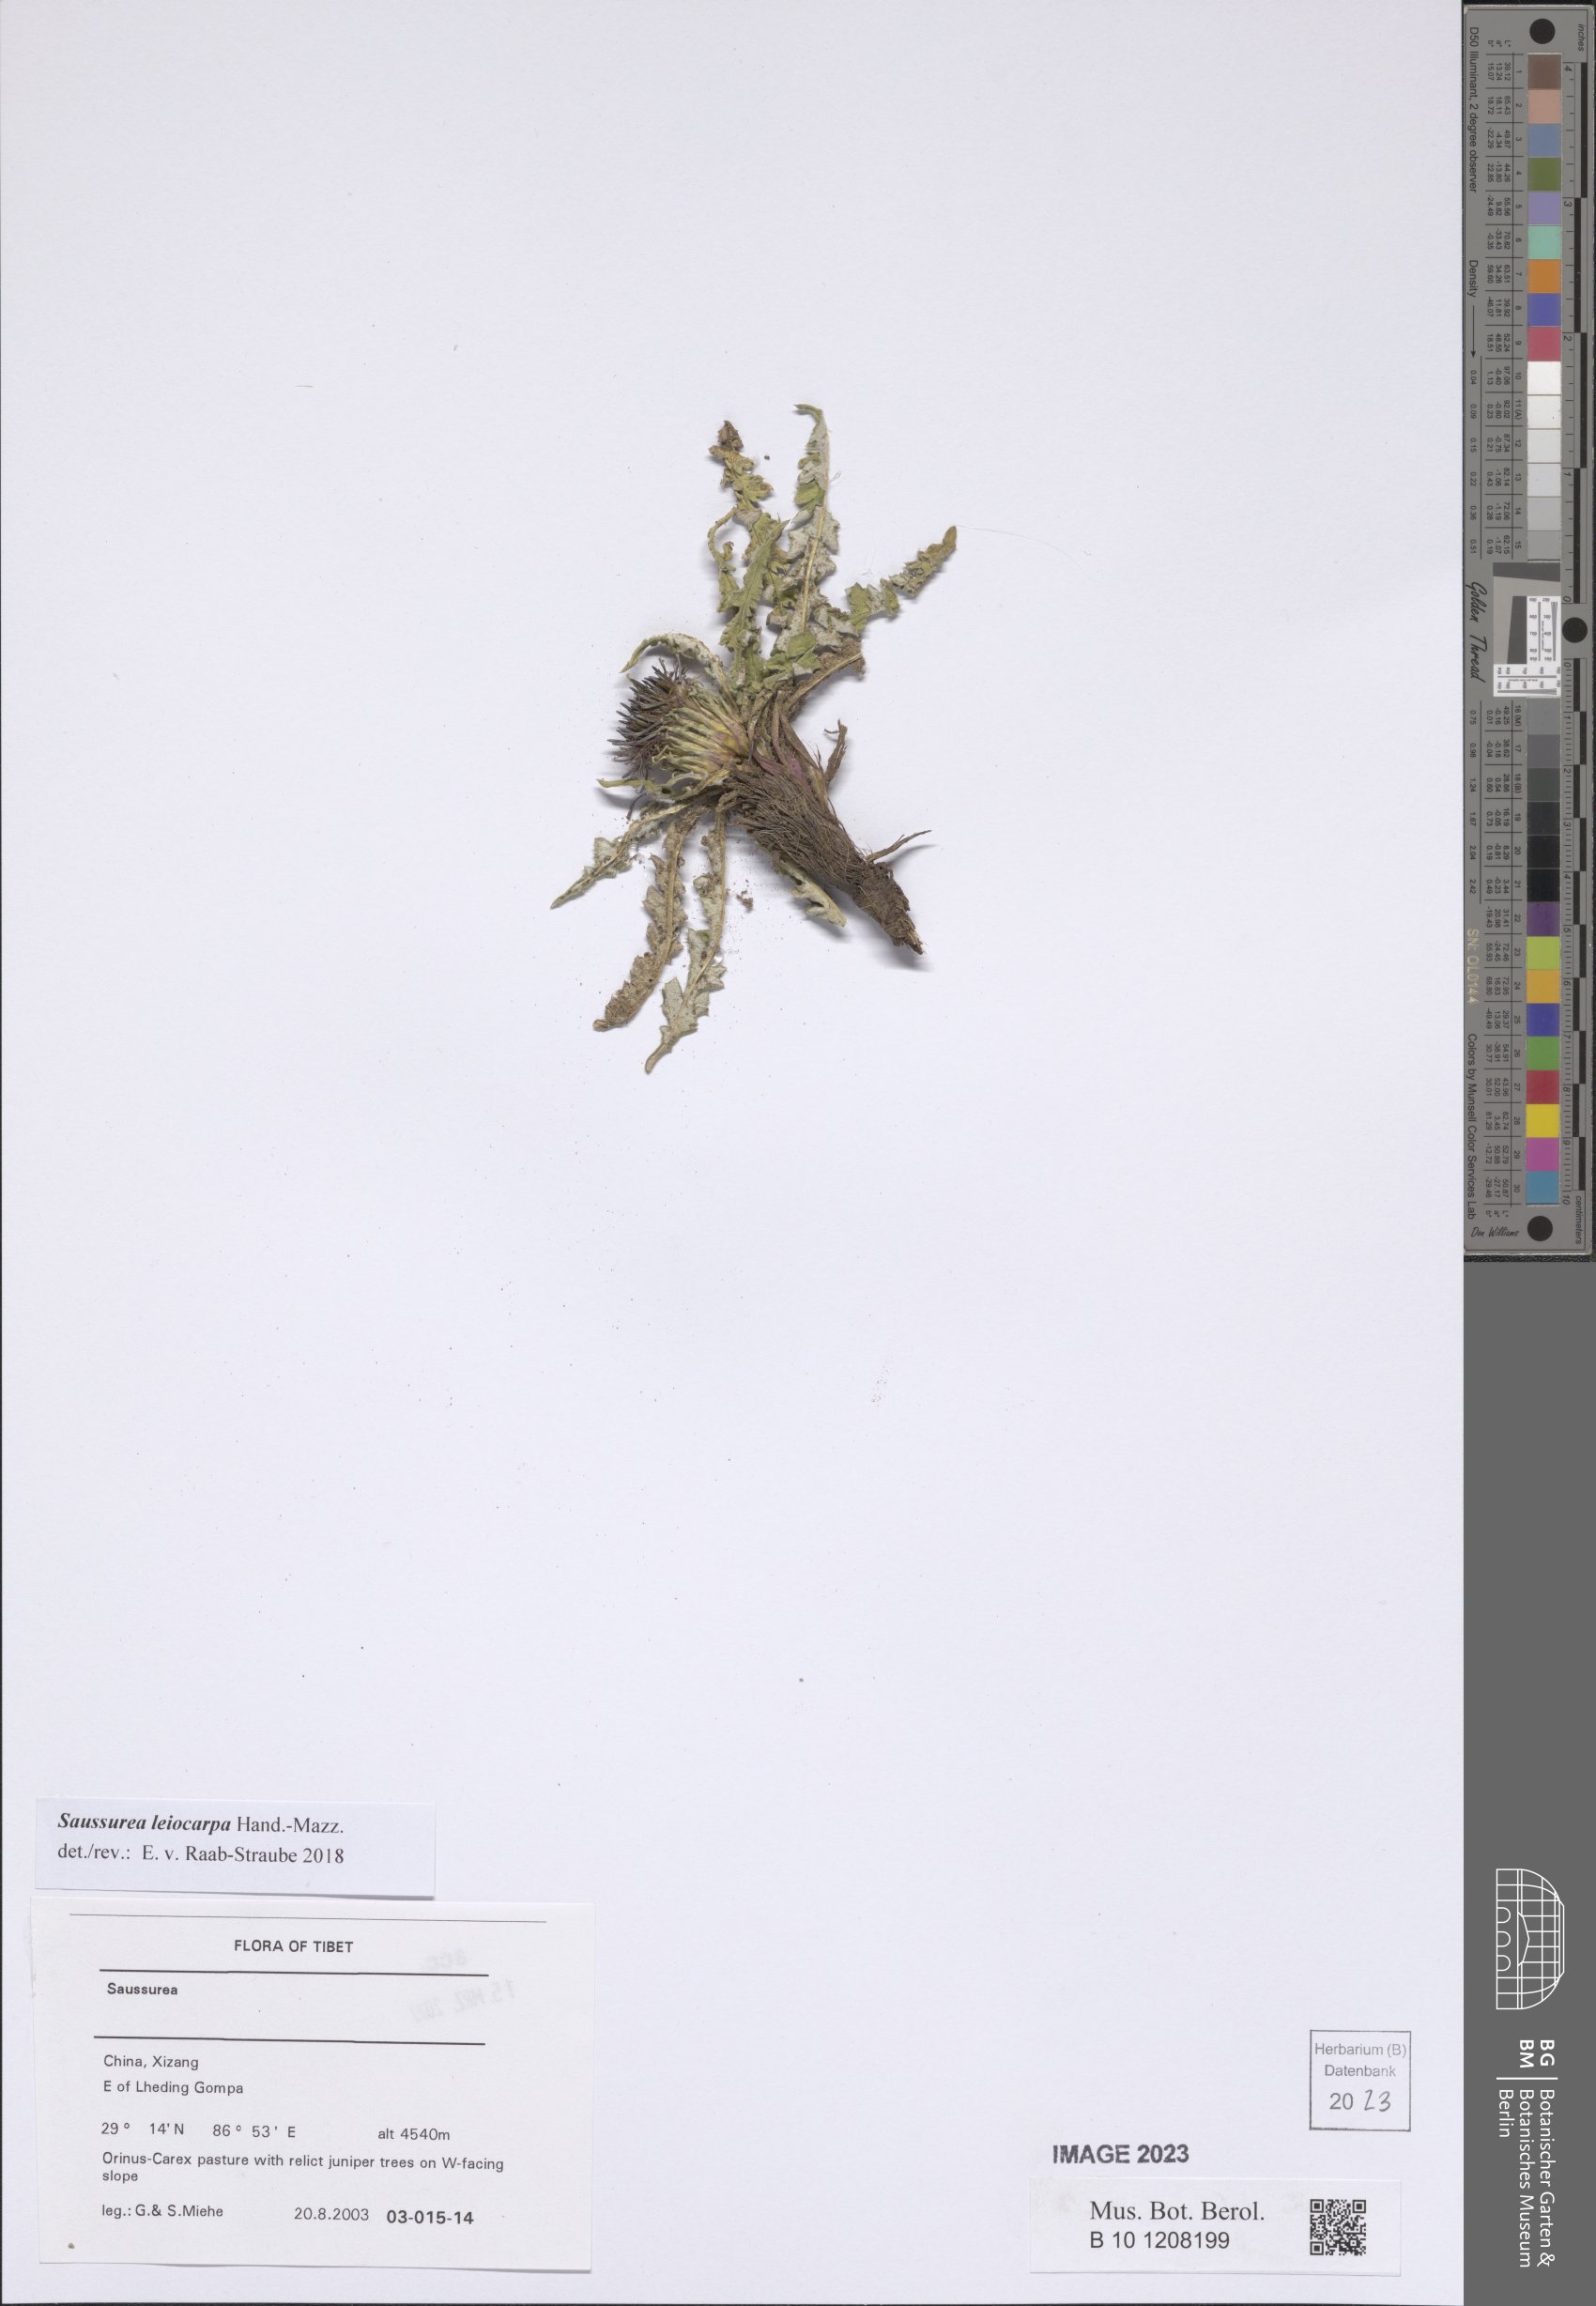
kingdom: Plantae
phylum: Tracheophyta
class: Magnoliopsida
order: Asterales
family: Asteraceae
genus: Saussurea
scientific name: Saussurea leiocarpa
